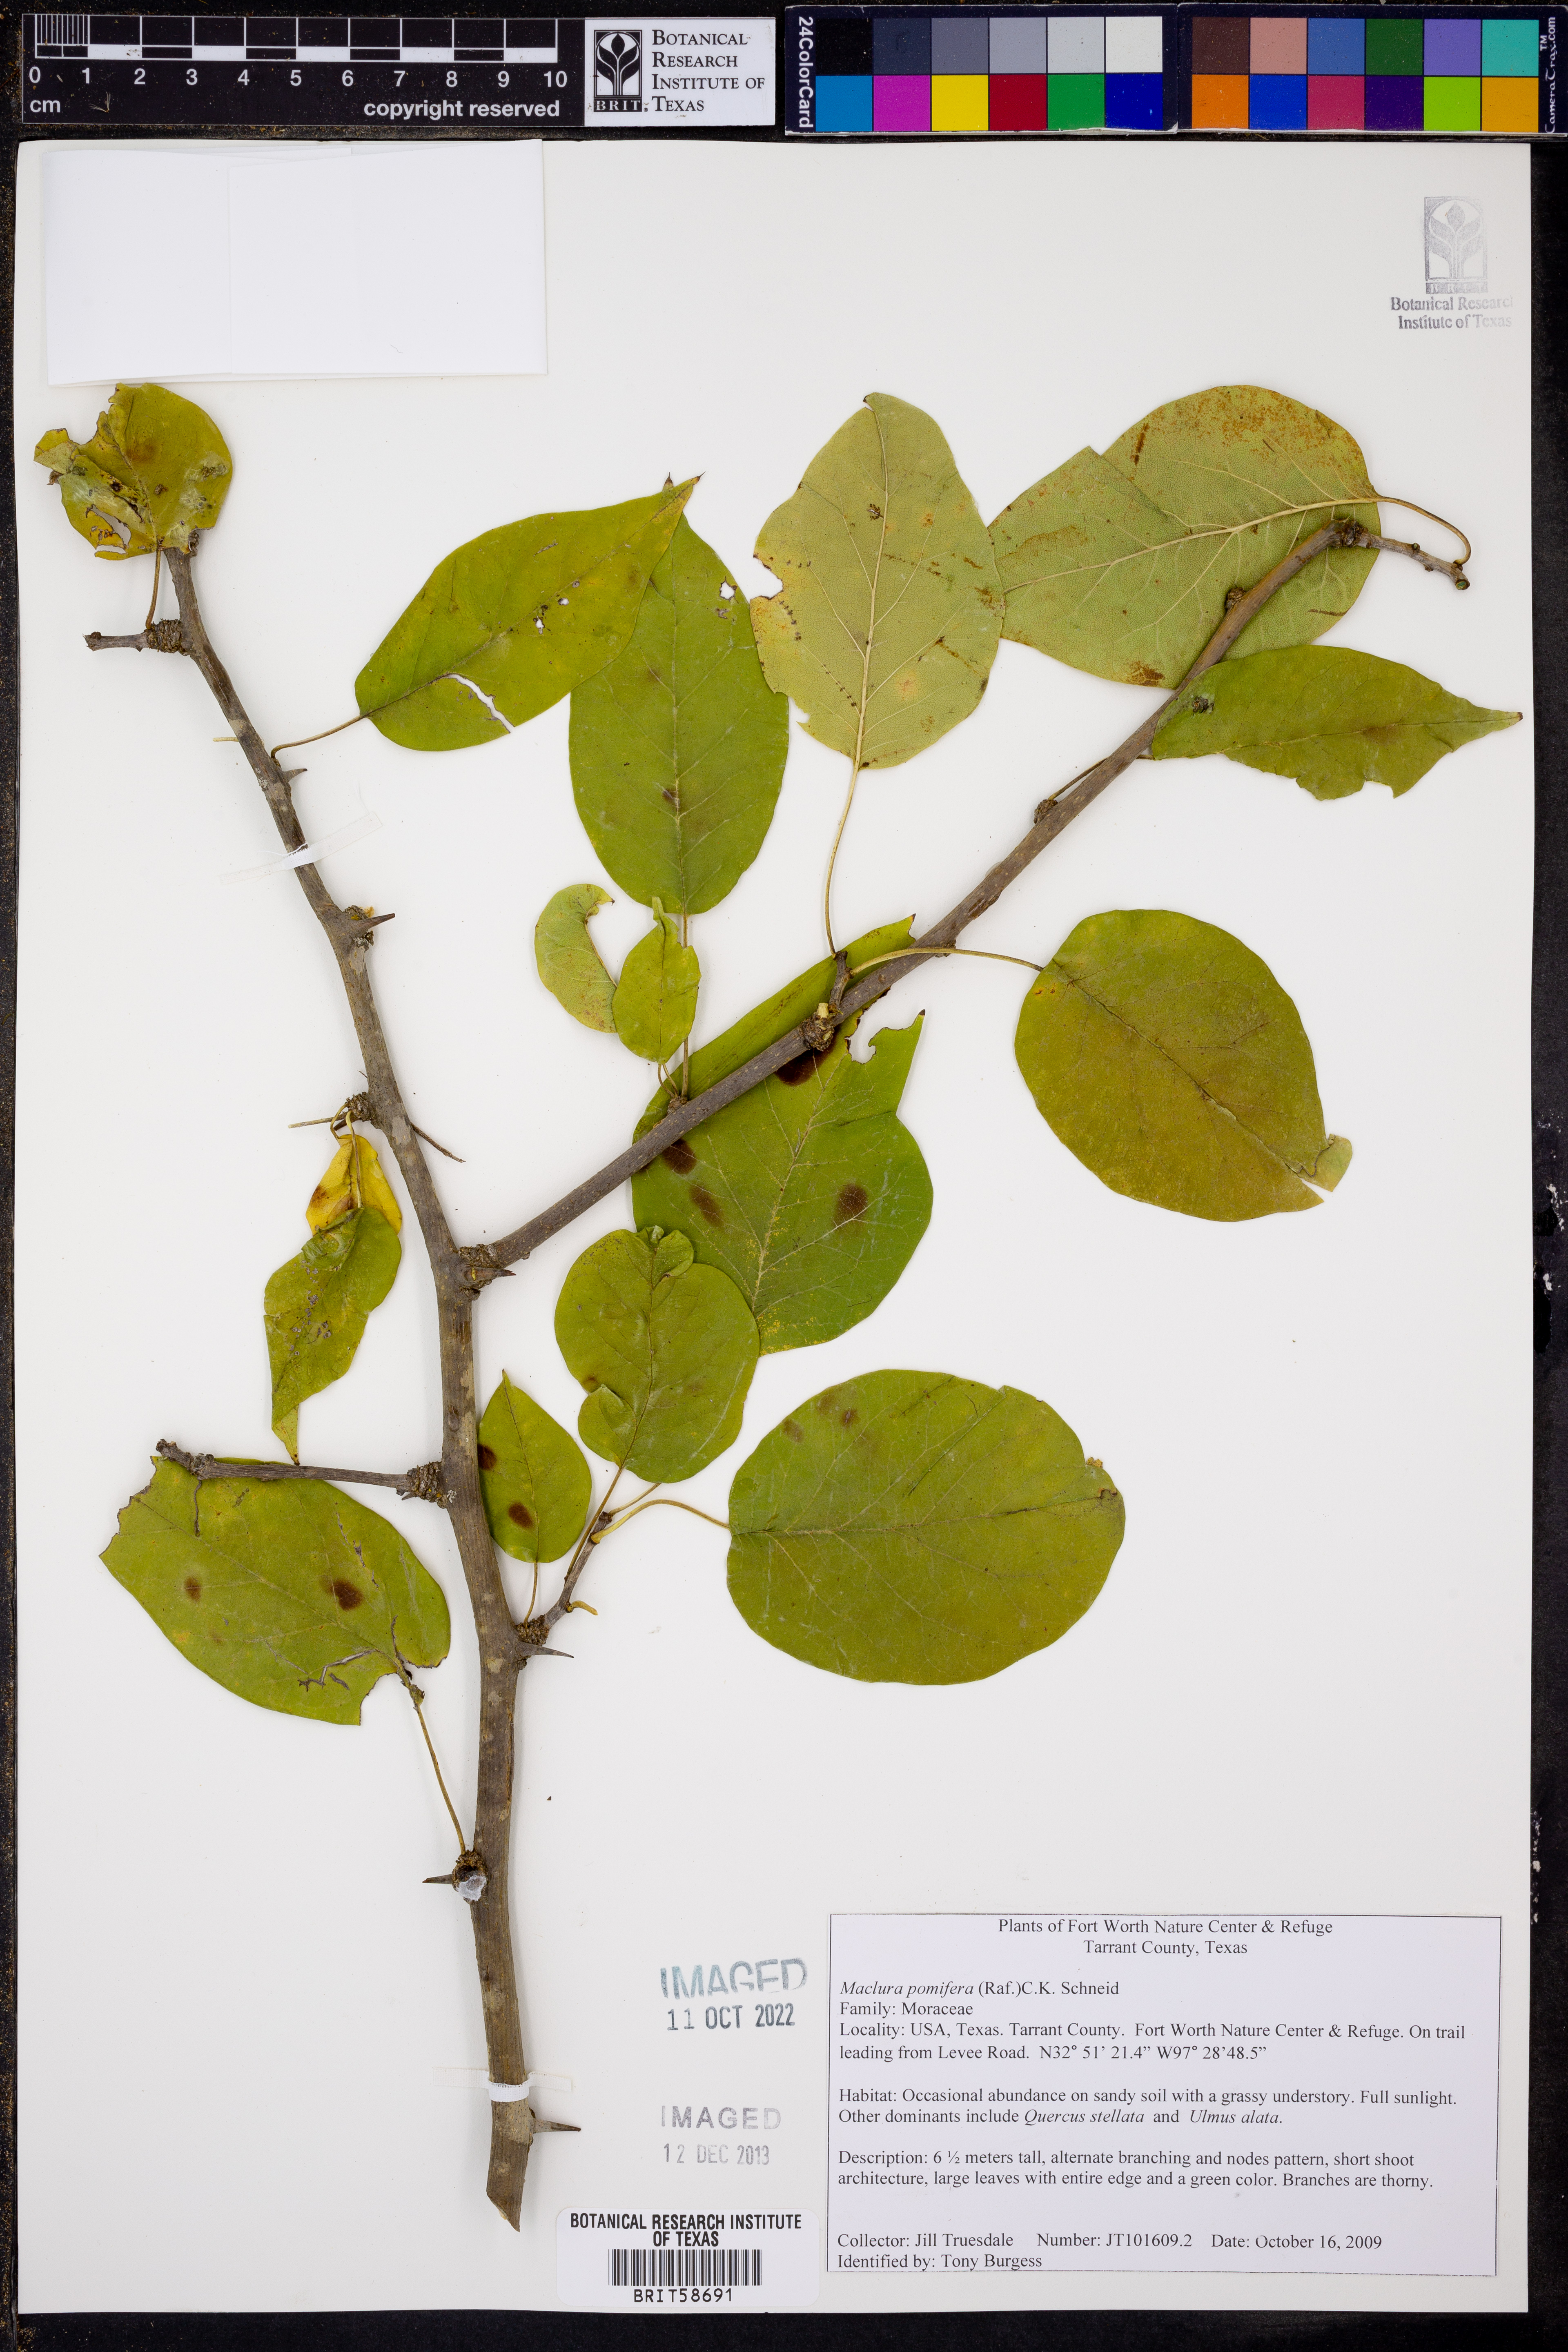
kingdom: Plantae
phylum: Tracheophyta
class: Magnoliopsida
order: Rosales
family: Moraceae
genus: Maclura
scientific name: Maclura pomifera
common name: Osage-orange
